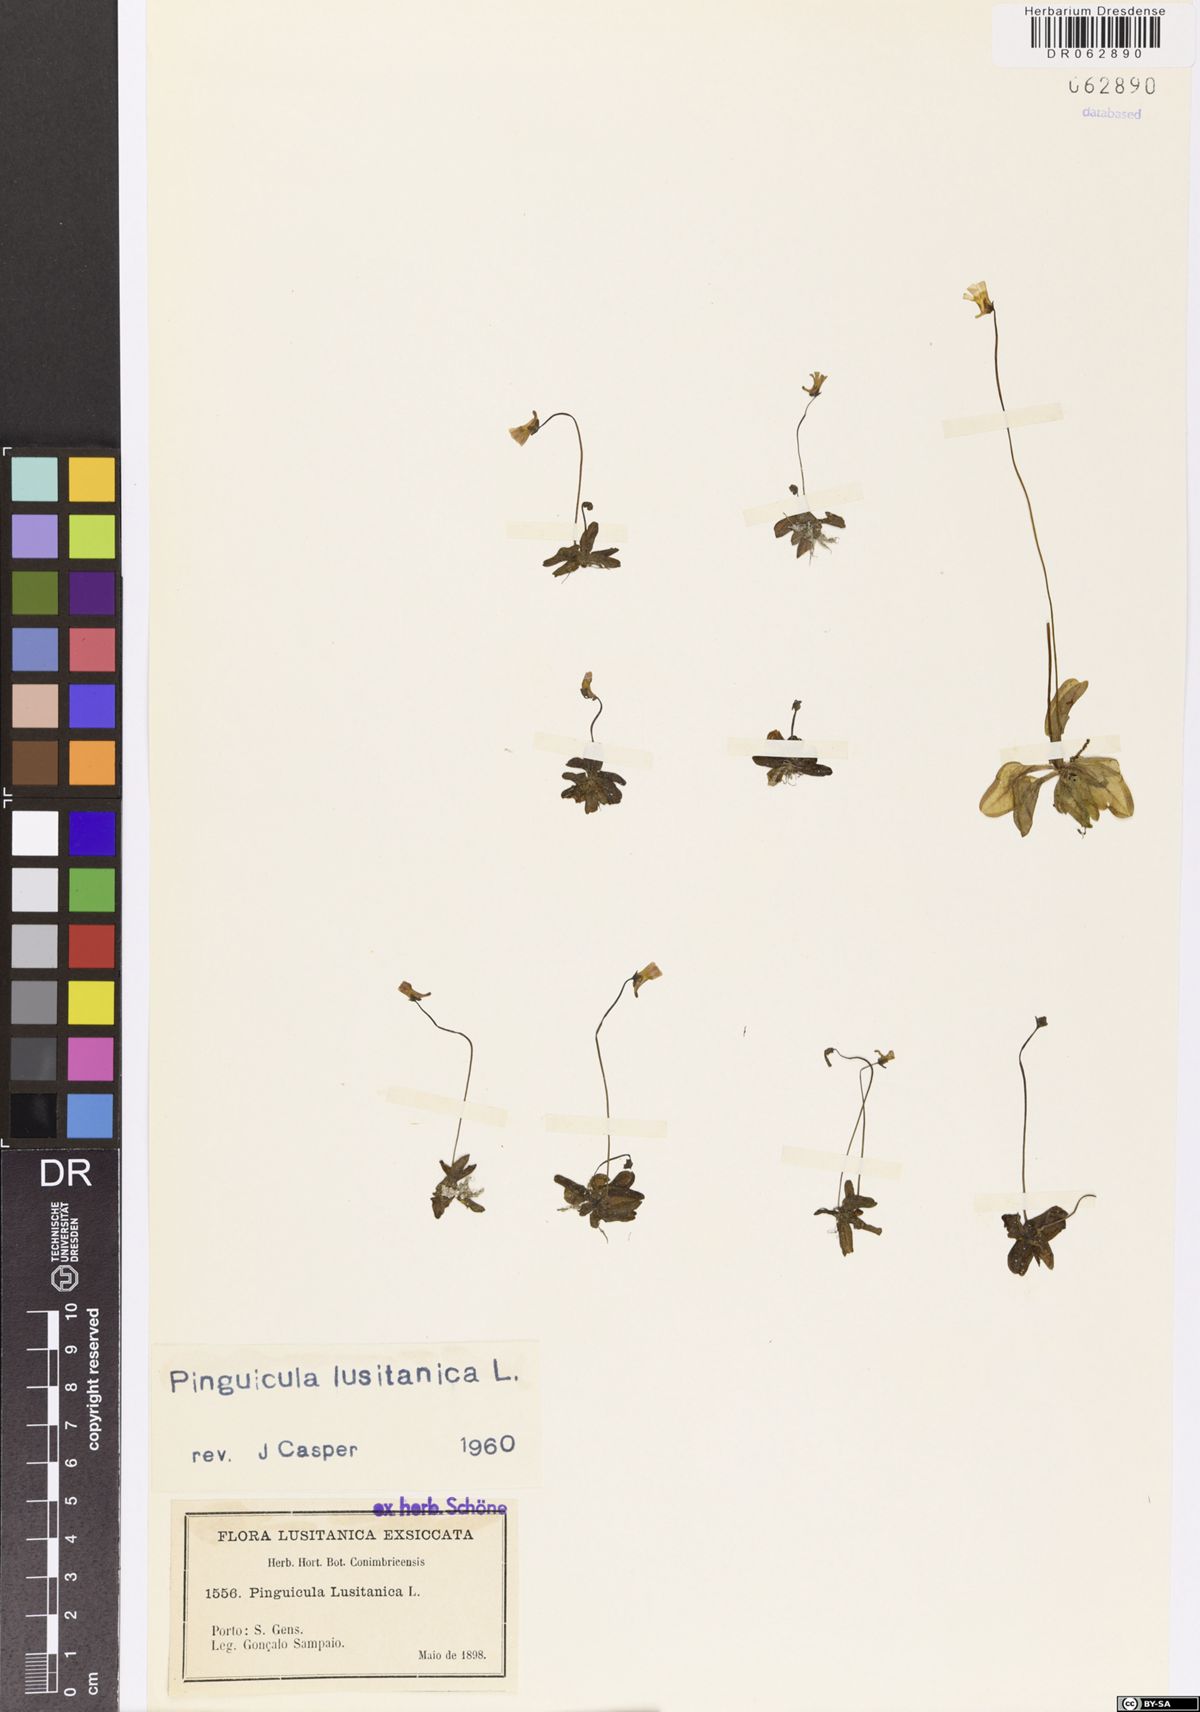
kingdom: Plantae
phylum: Tracheophyta
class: Magnoliopsida
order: Lamiales
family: Lentibulariaceae
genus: Pinguicula
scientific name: Pinguicula lusitanica
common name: Pale butterwort
